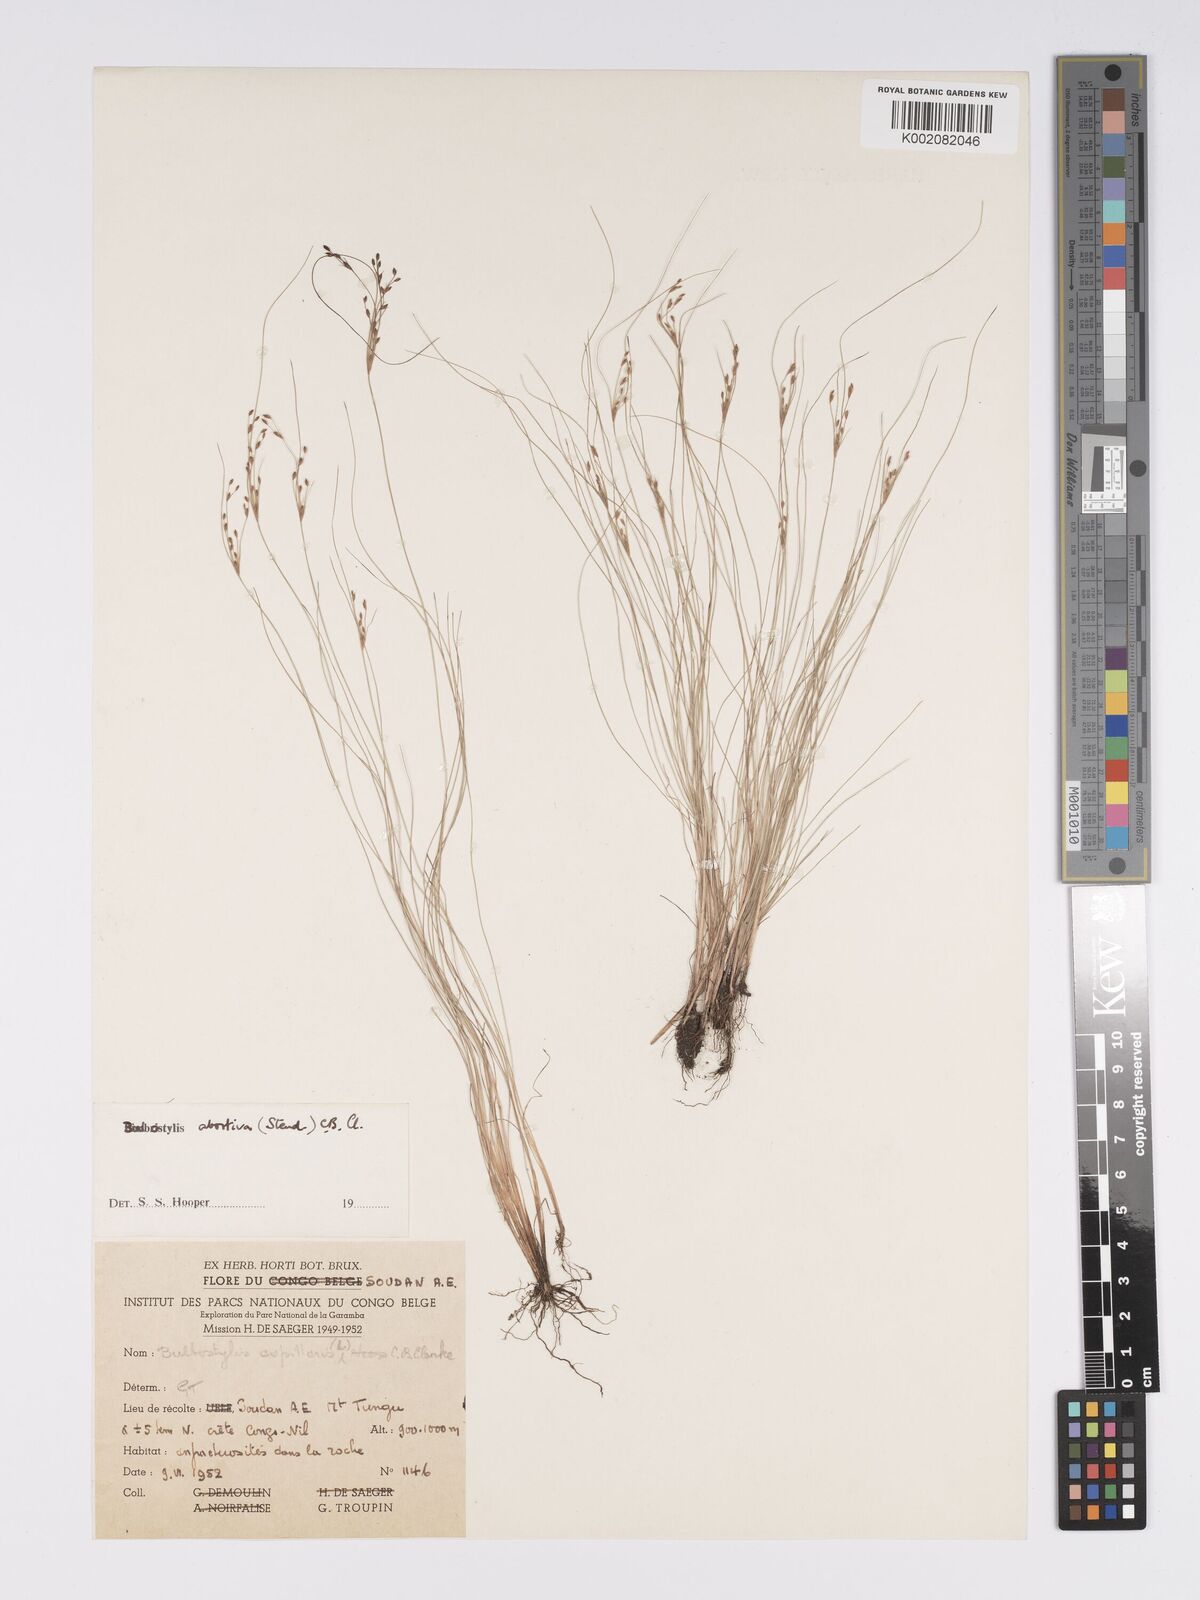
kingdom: Plantae
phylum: Tracheophyta
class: Liliopsida
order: Poales
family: Cyperaceae
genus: Bulbostylis
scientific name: Bulbostylis abortiva
